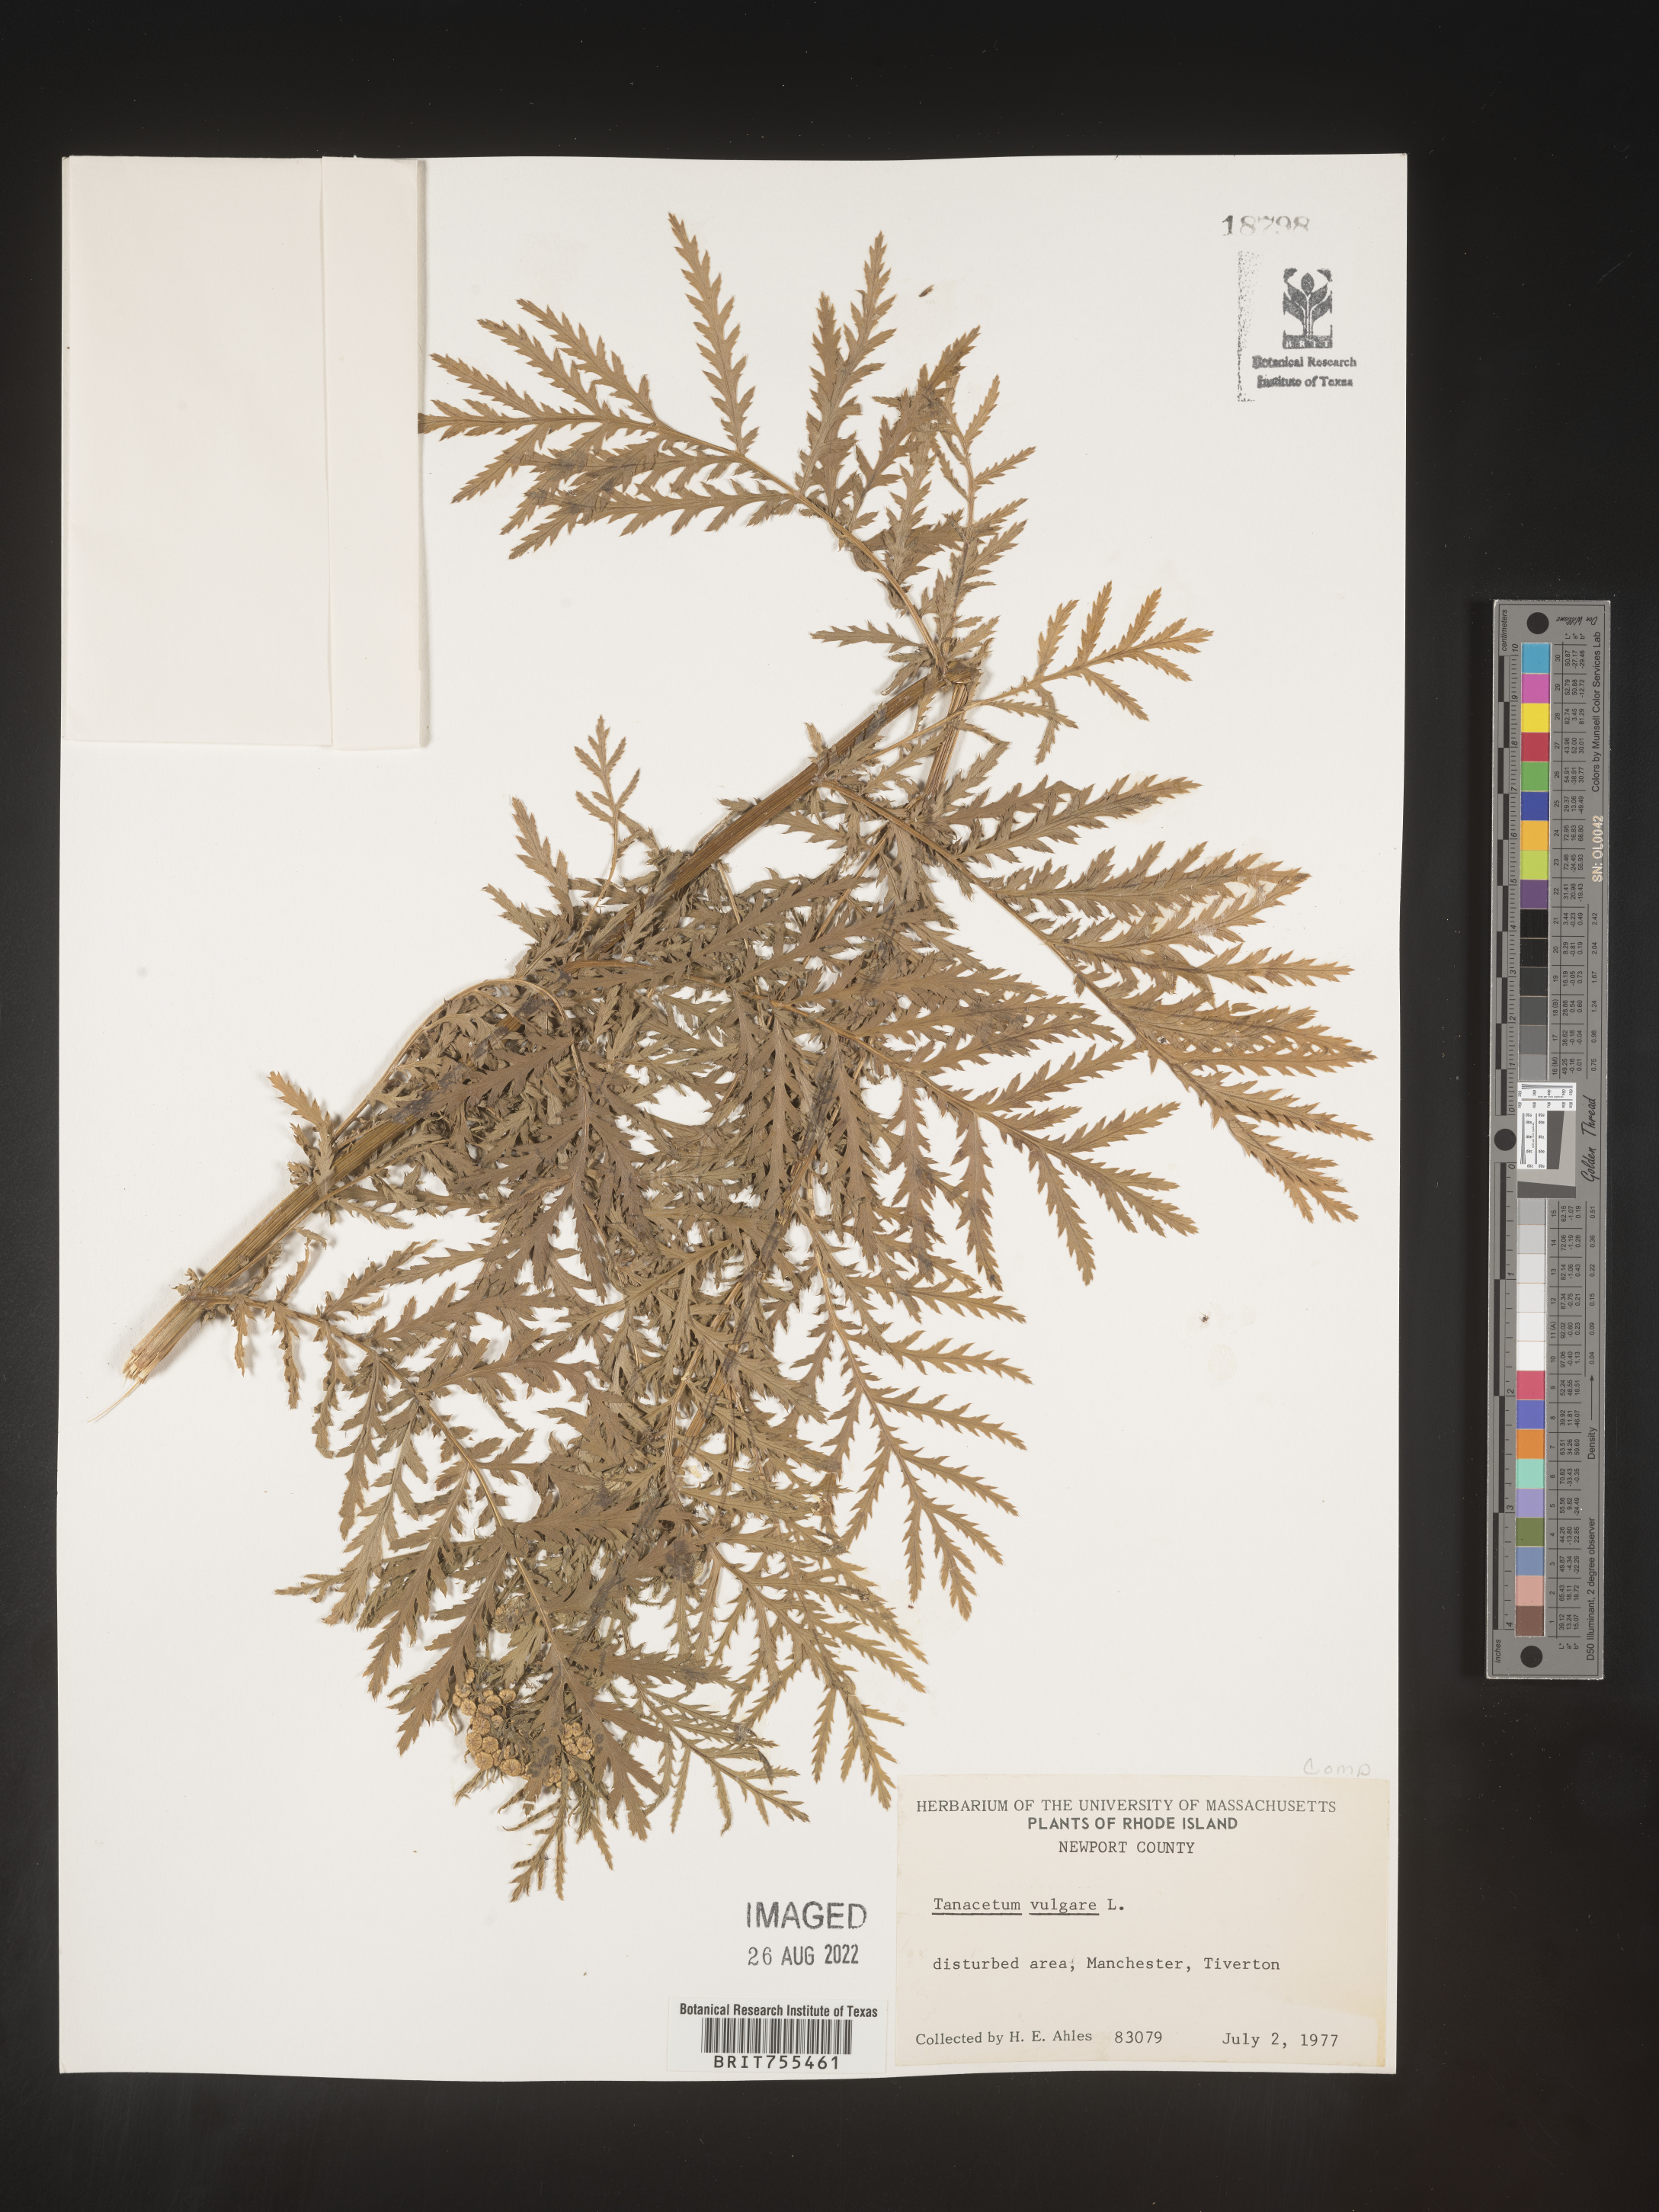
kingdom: Plantae
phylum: Tracheophyta
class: Magnoliopsida
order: Asterales
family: Asteraceae
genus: Tanacetum
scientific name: Tanacetum vulgare
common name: Common tansy
